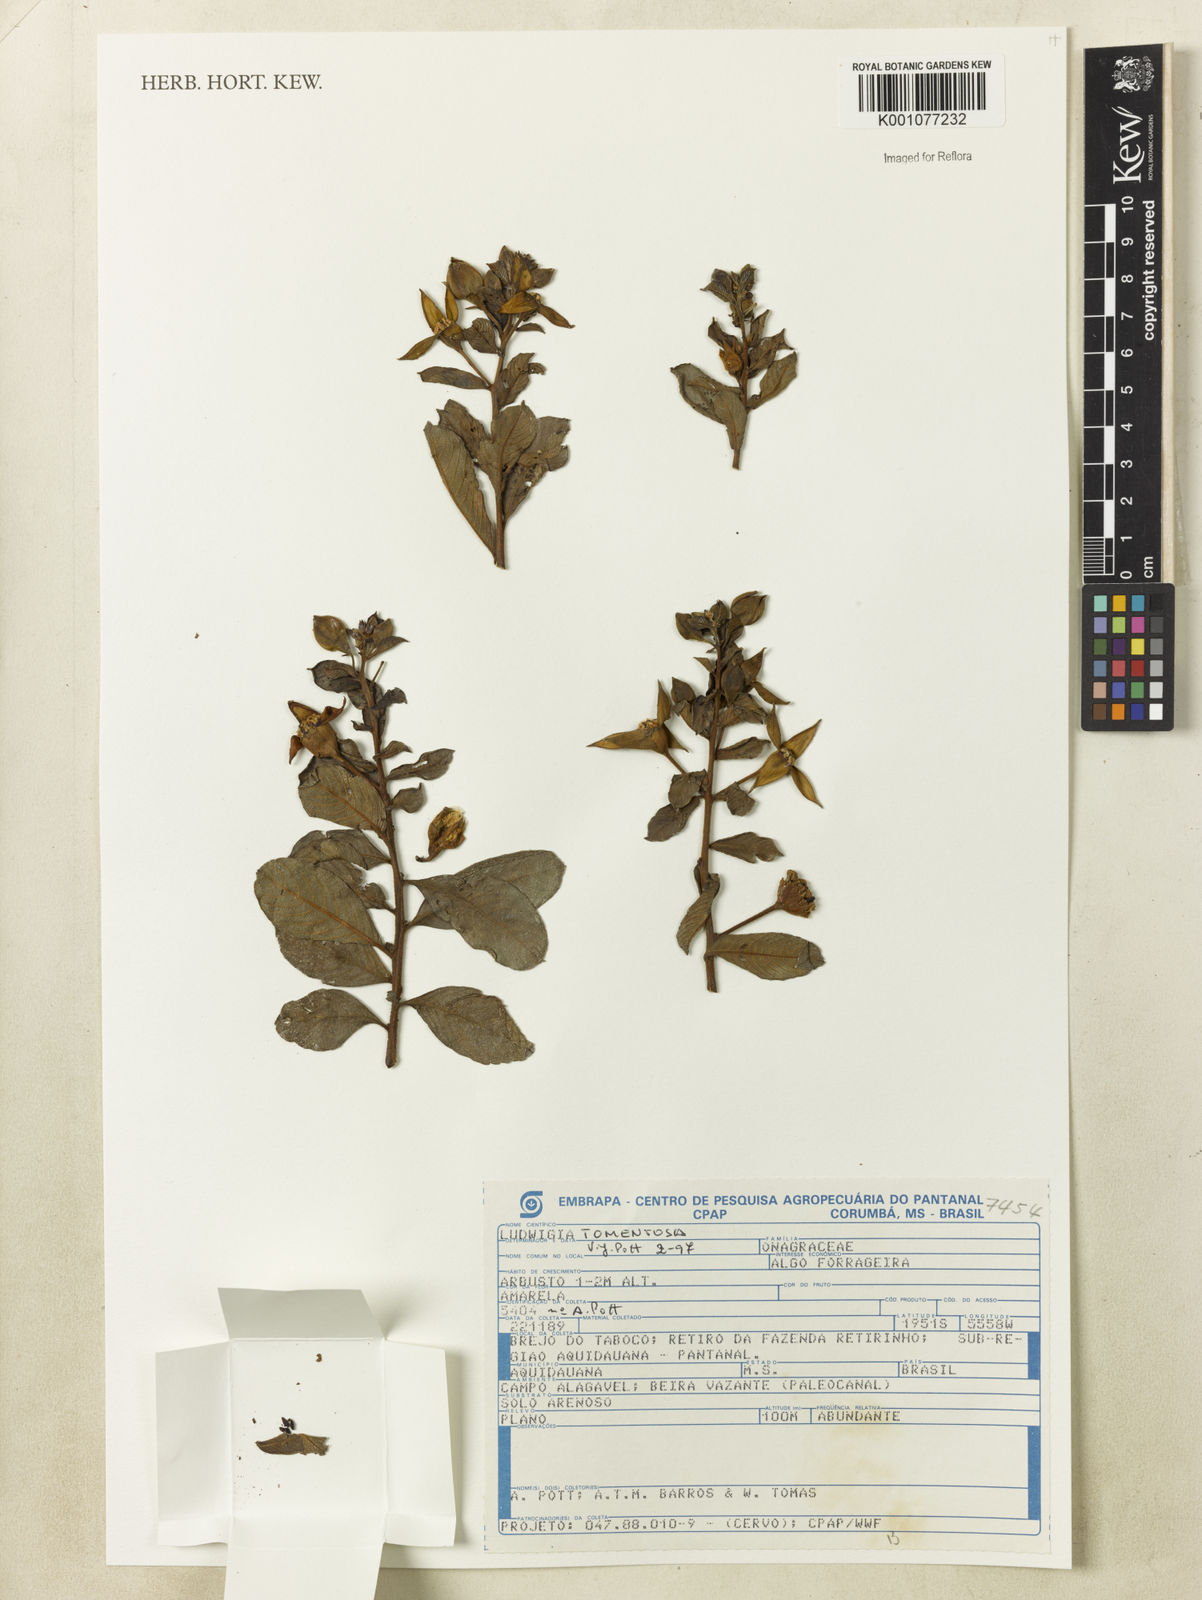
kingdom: Plantae
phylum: Tracheophyta
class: Magnoliopsida
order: Myrtales
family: Onagraceae
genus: Ludwigia
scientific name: Ludwigia tomentosa
